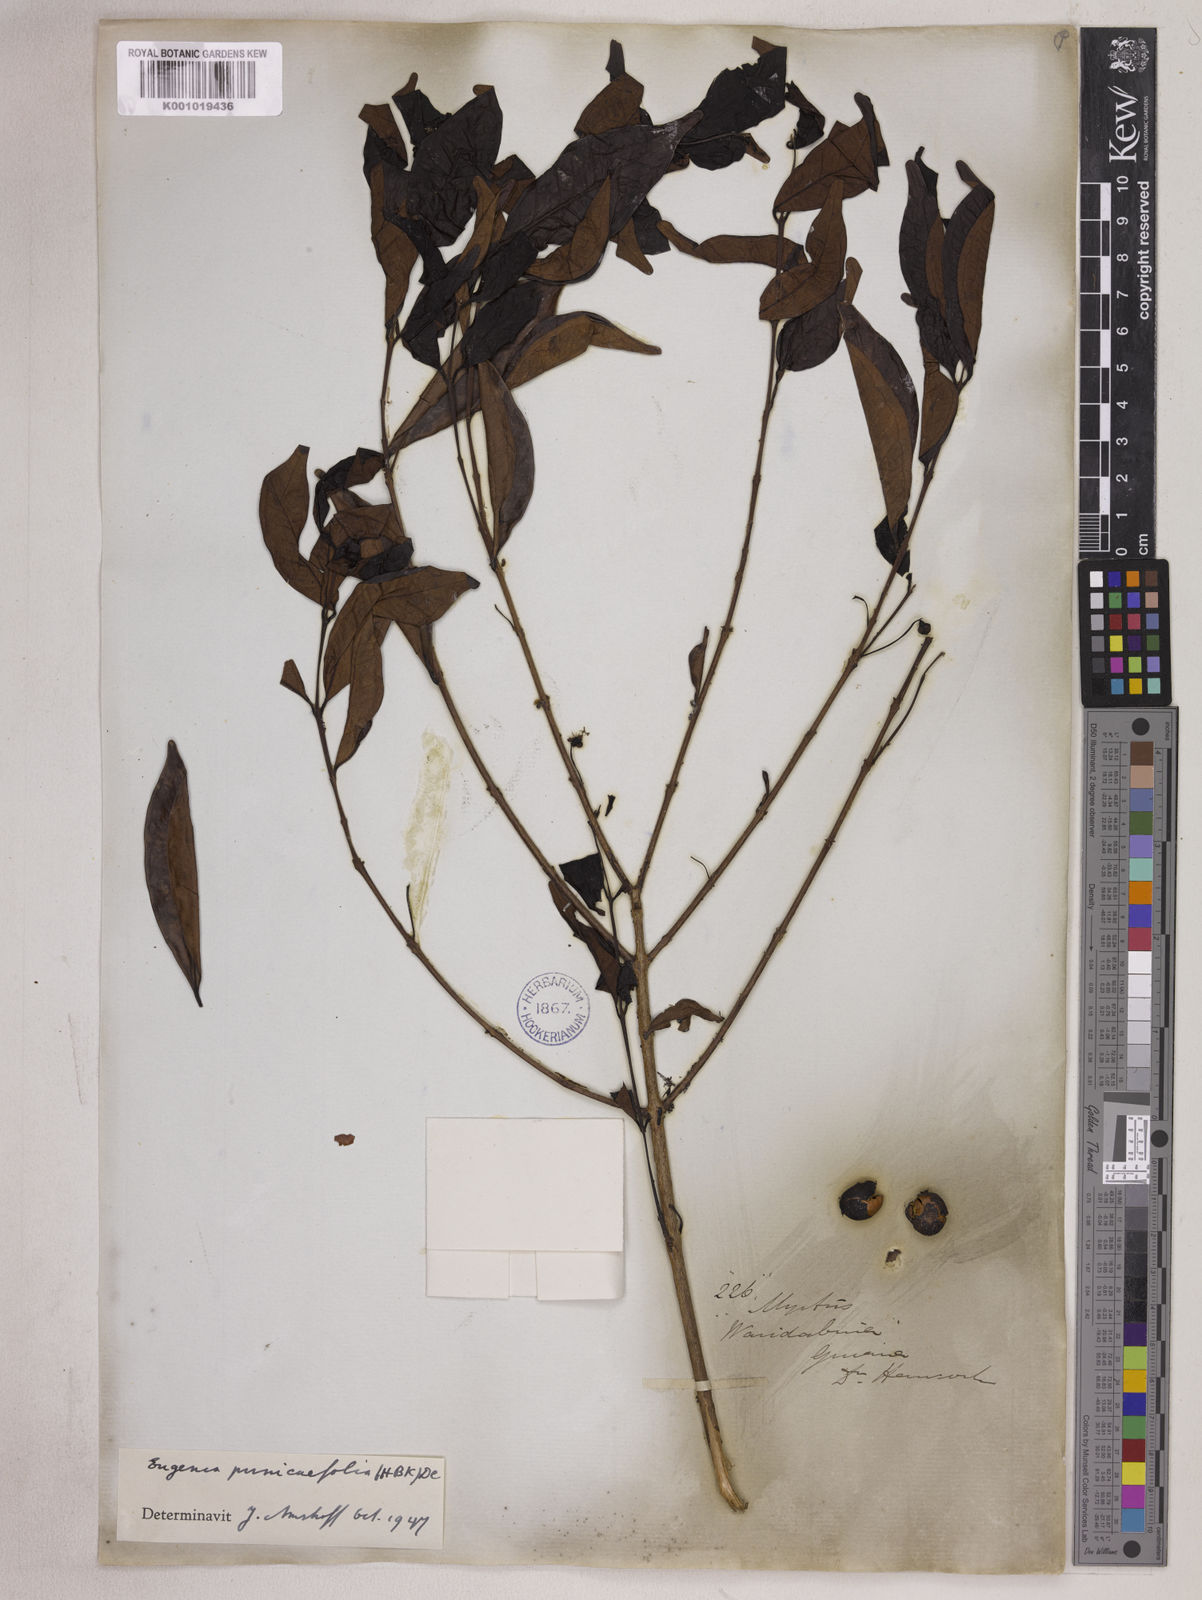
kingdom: Plantae
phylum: Tracheophyta
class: Magnoliopsida
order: Myrtales
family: Myrtaceae
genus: Eugenia
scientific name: Eugenia punicifolia
